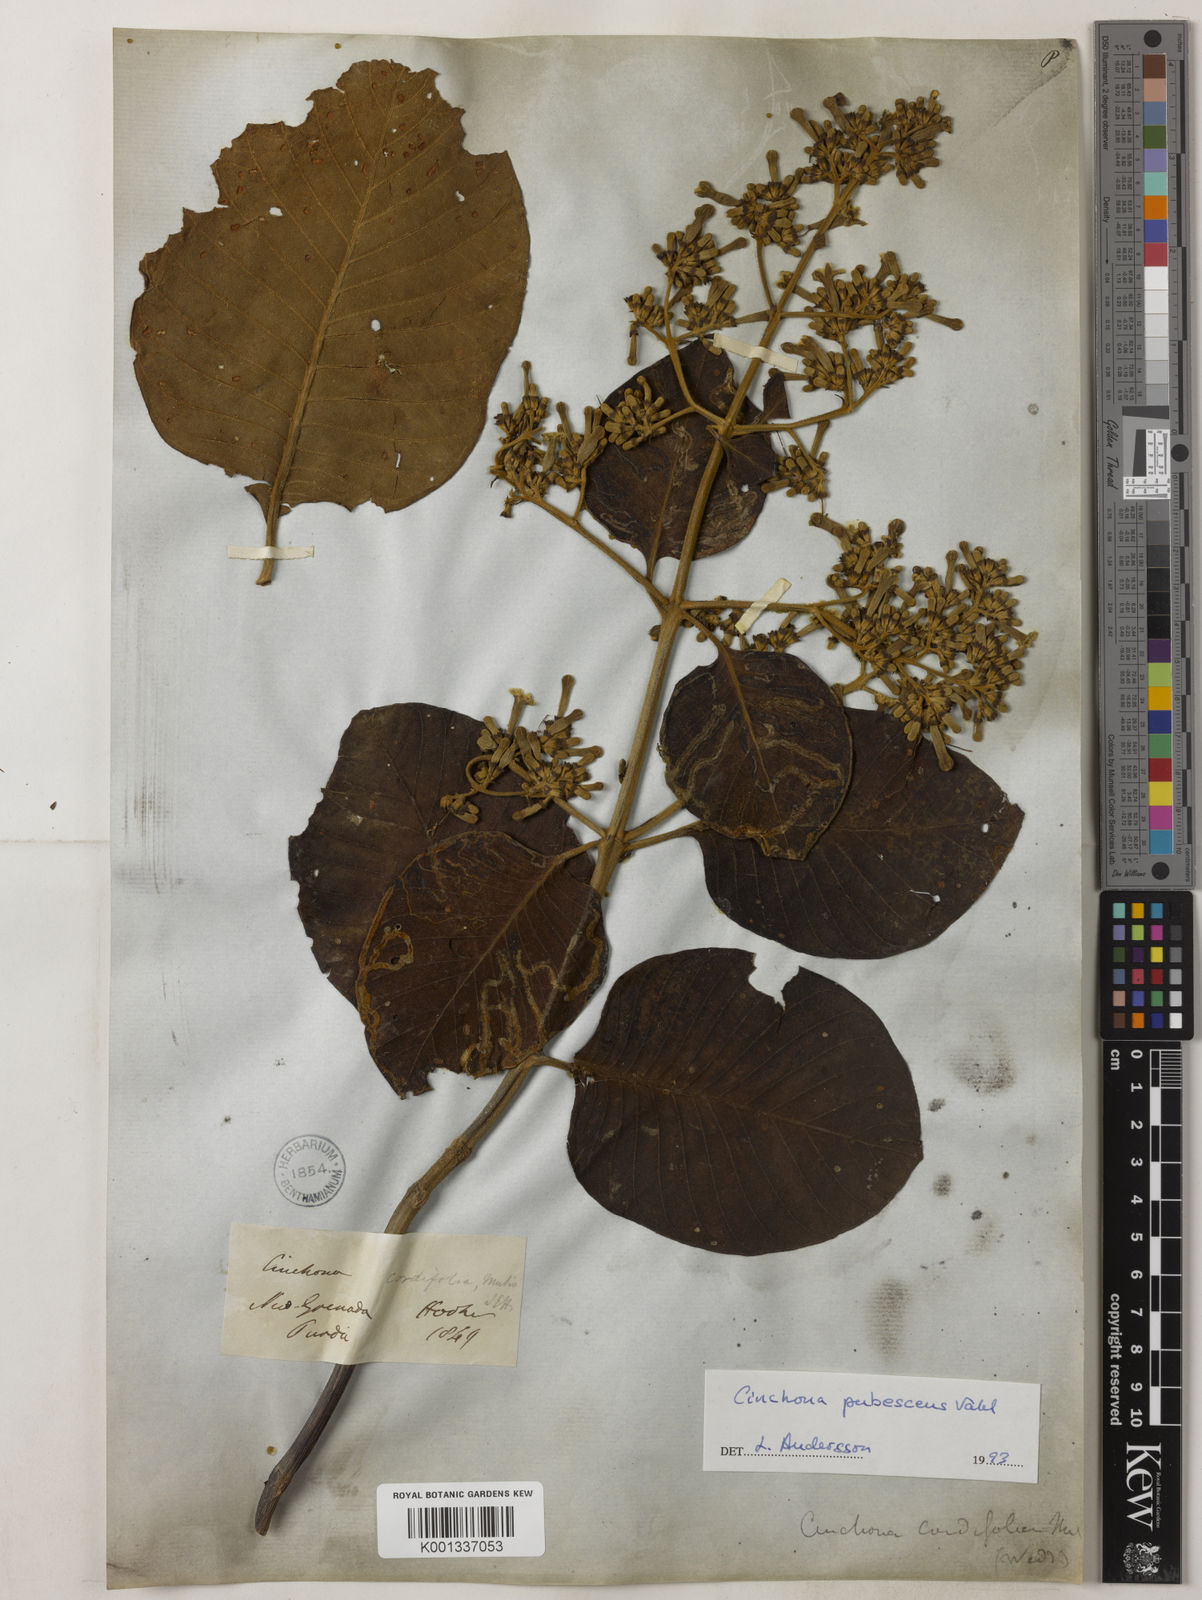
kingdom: Plantae
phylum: Tracheophyta
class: Magnoliopsida
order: Gentianales
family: Rubiaceae
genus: Cinchona
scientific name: Cinchona pubescens
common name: Quinine
